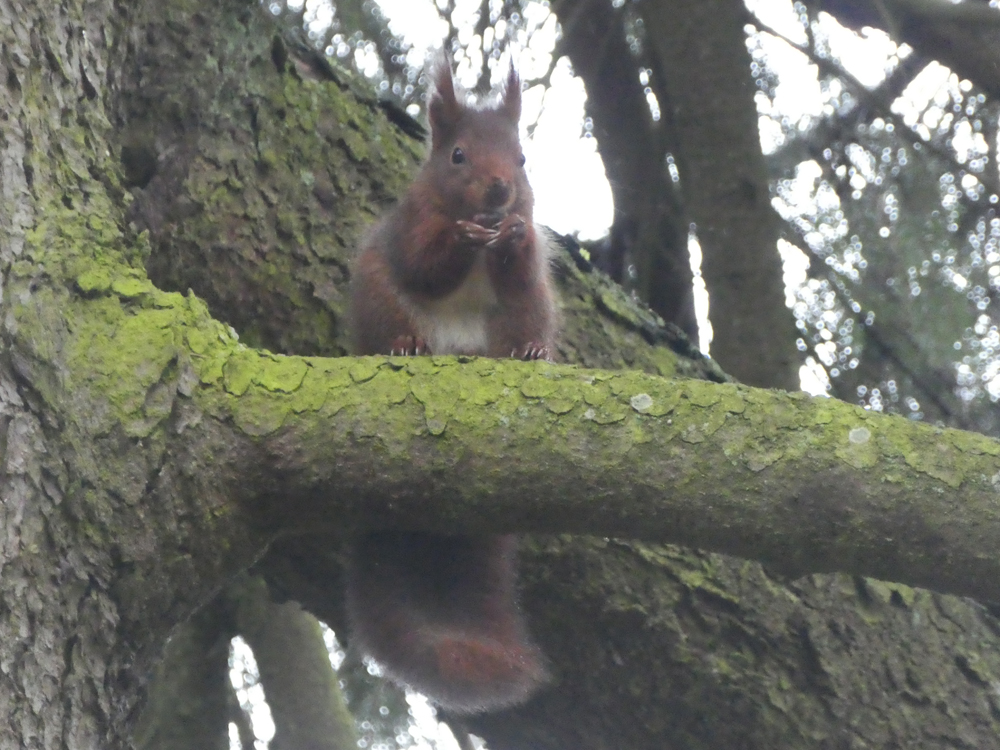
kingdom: Animalia
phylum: Chordata
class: Mammalia
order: Rodentia
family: Sciuridae
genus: Sciurus
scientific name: Sciurus vulgaris
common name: Eurasian red squirrel
